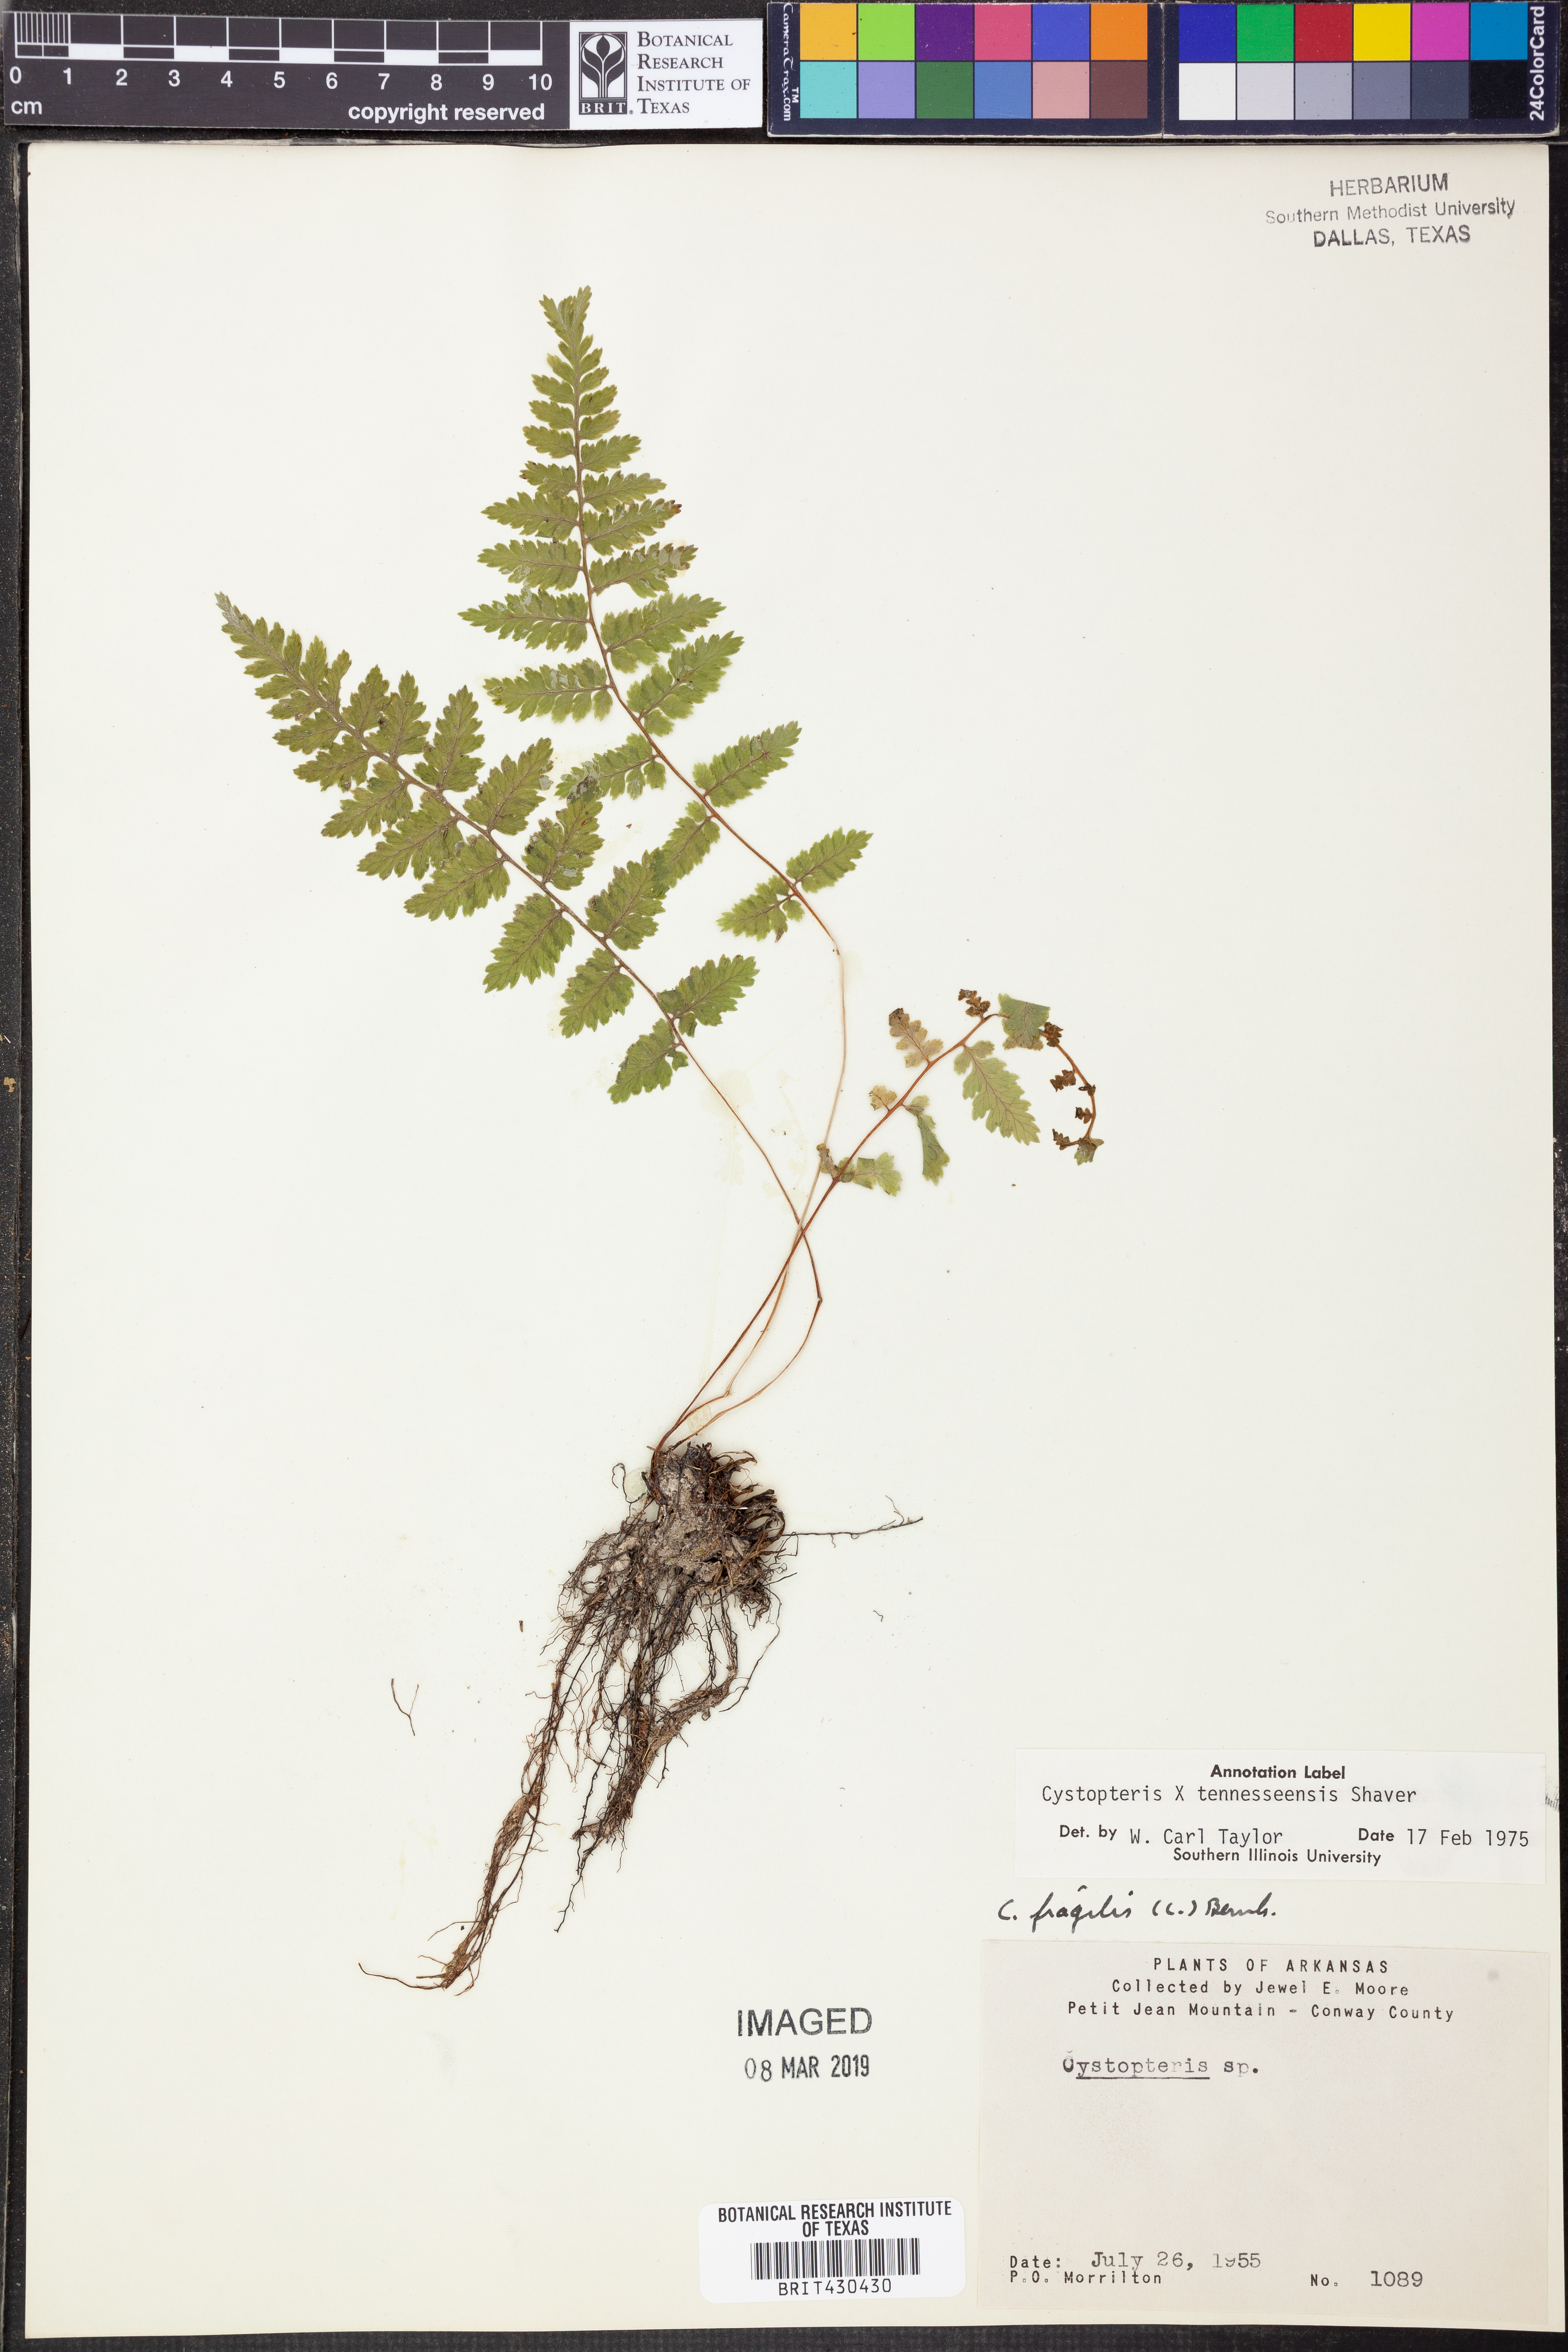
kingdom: Plantae
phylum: Tracheophyta
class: Polypodiopsida
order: Polypodiales
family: Cystopteridaceae
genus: Cystopteris
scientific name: Cystopteris tennesseensis
